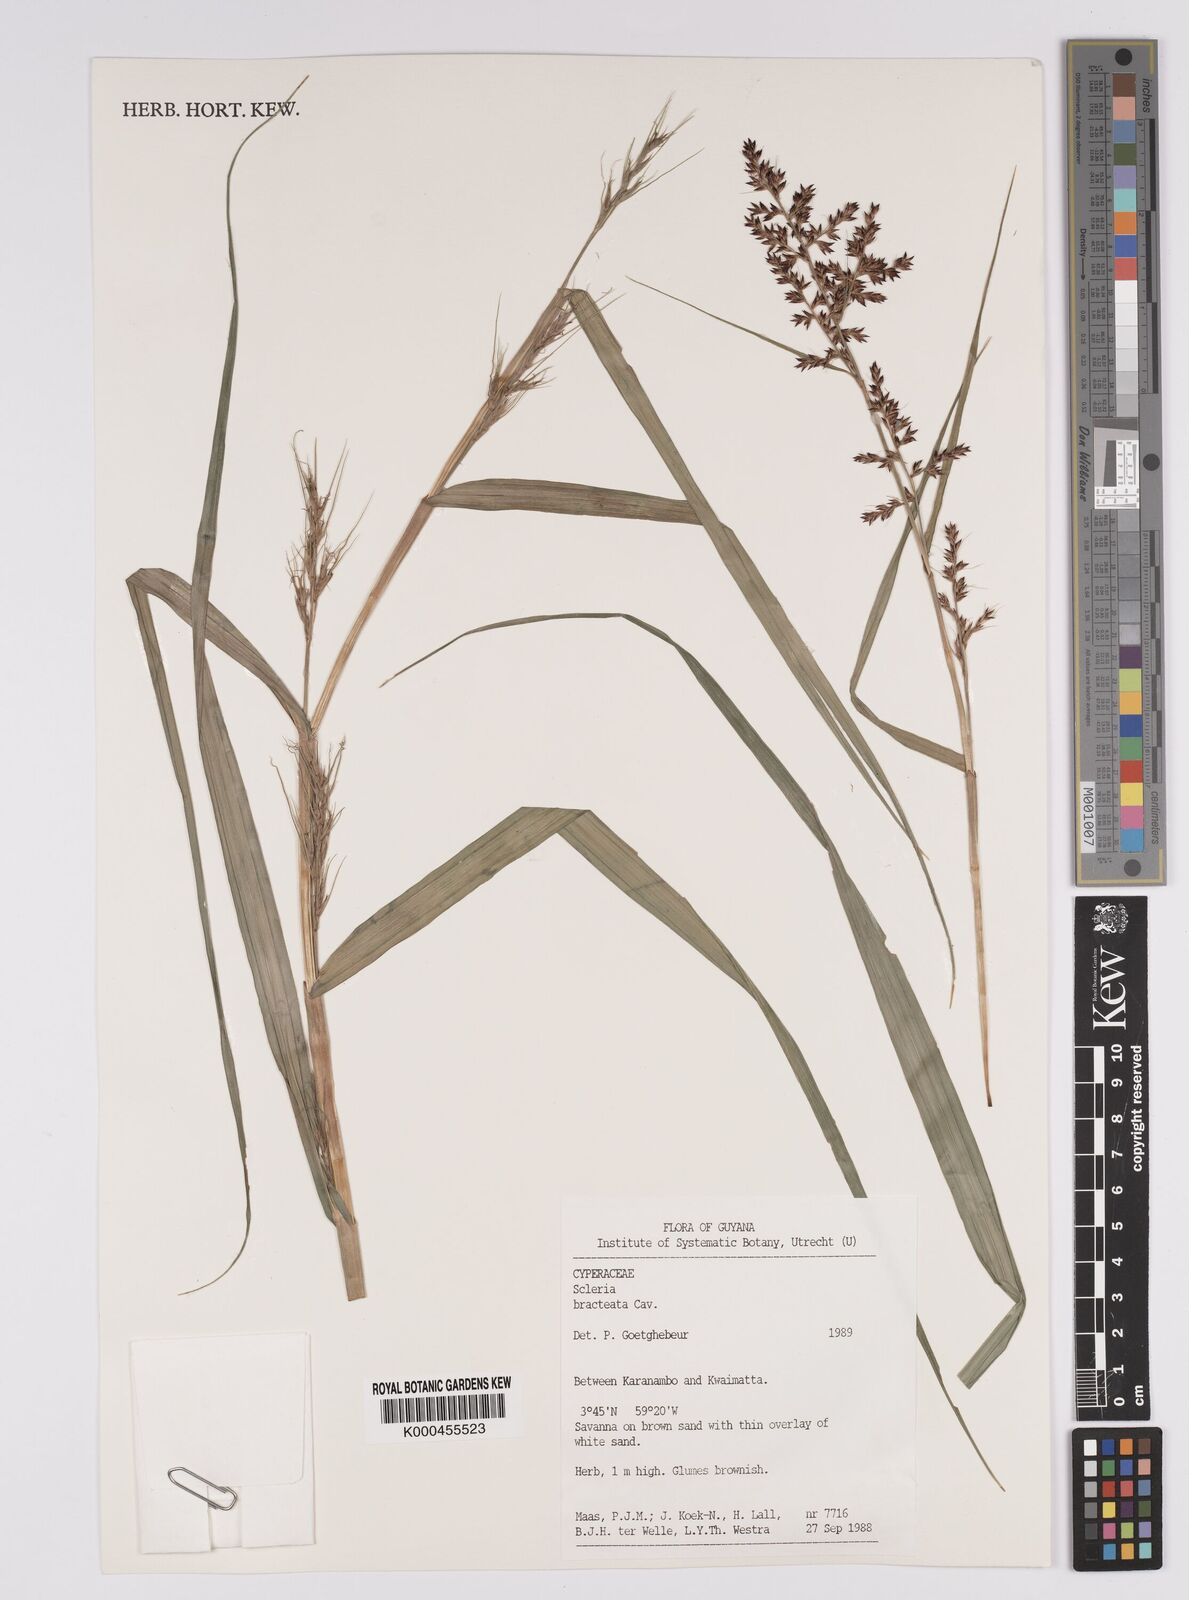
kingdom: Plantae
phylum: Tracheophyta
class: Liliopsida
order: Poales
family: Cyperaceae
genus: Scleria
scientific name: Scleria bracteata
